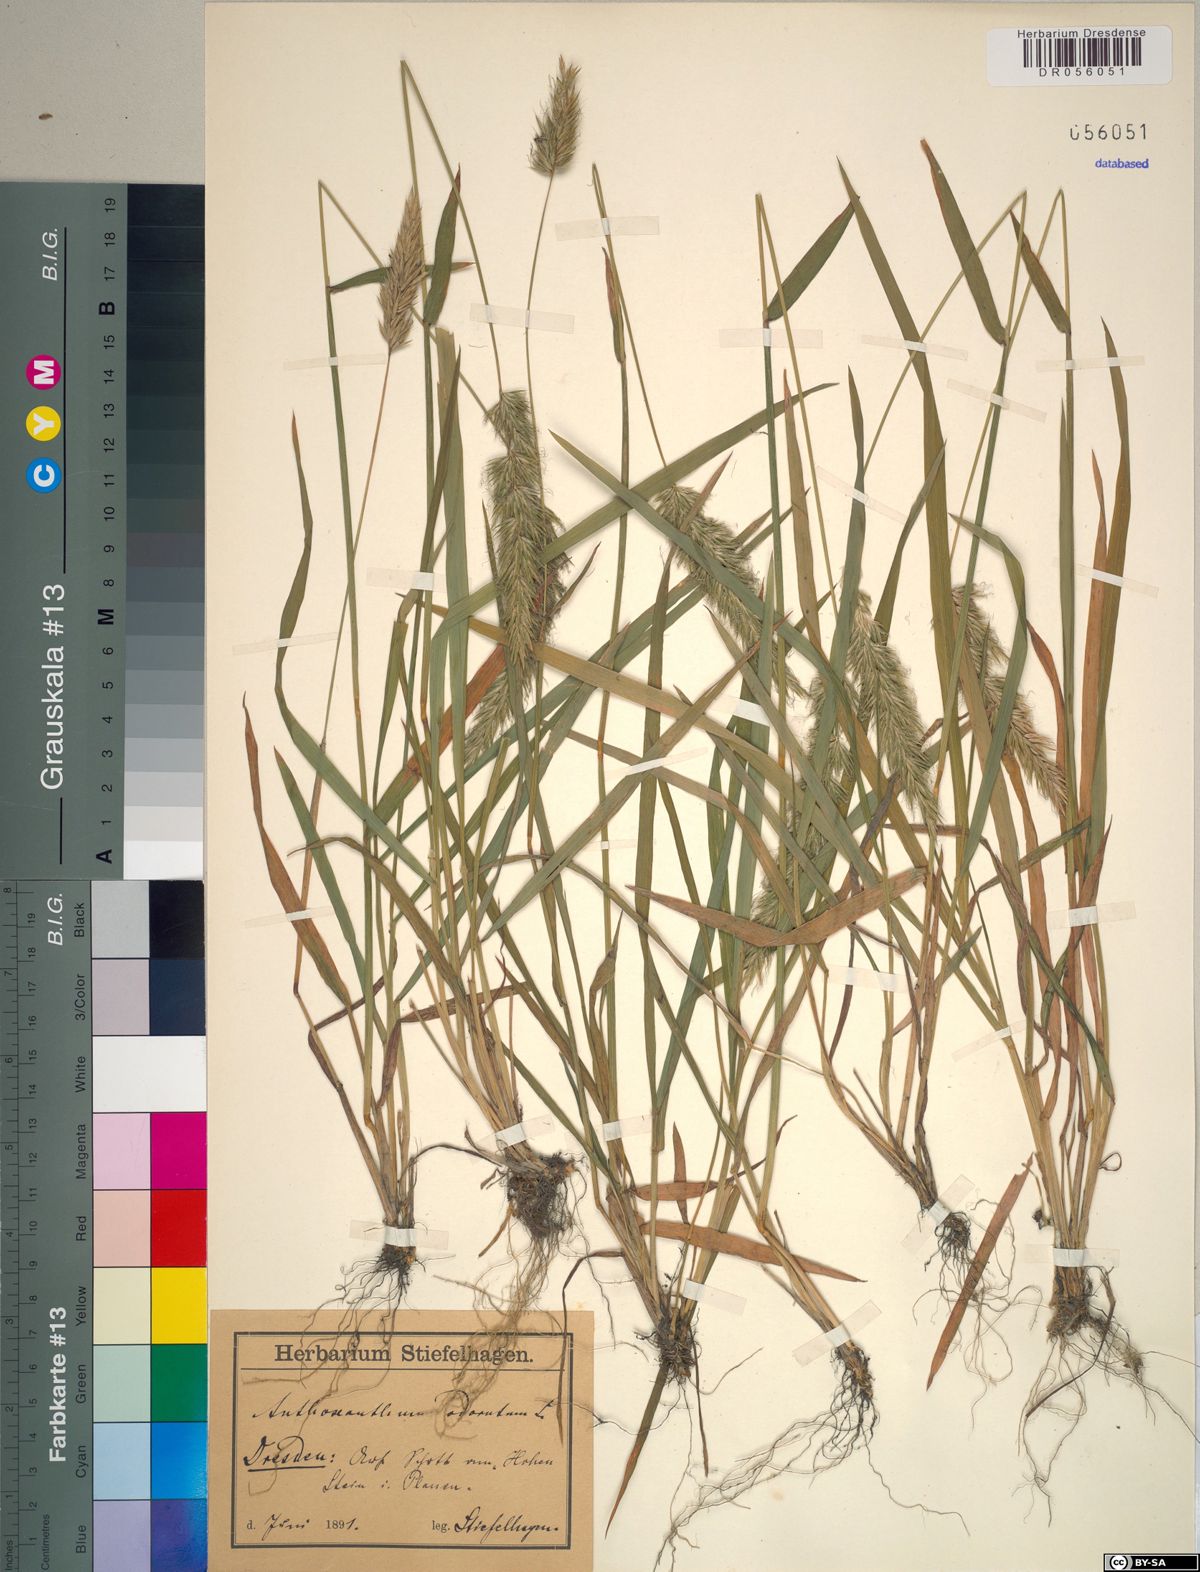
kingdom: Plantae
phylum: Tracheophyta
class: Liliopsida
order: Poales
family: Poaceae
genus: Anthoxanthum
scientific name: Anthoxanthum odoratum
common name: Sweet vernalgrass
